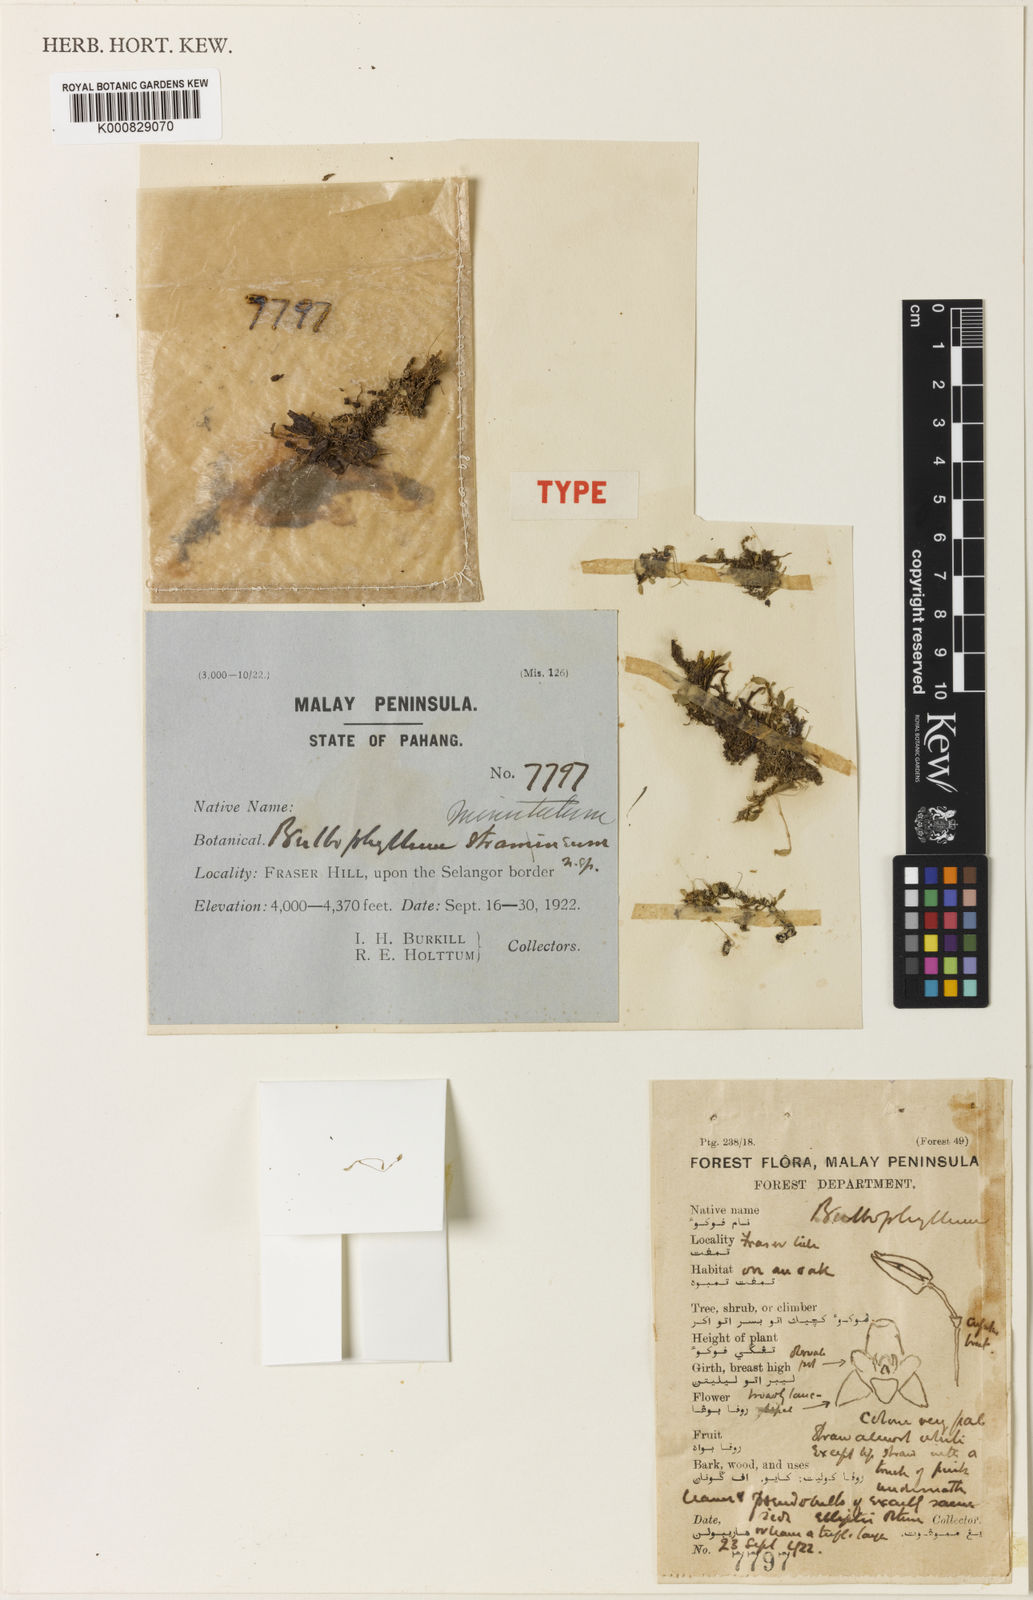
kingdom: Plantae
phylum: Tracheophyta
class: Liliopsida
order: Asparagales
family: Orchidaceae
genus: Bulbophyllum
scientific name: Bulbophyllum minutulum
